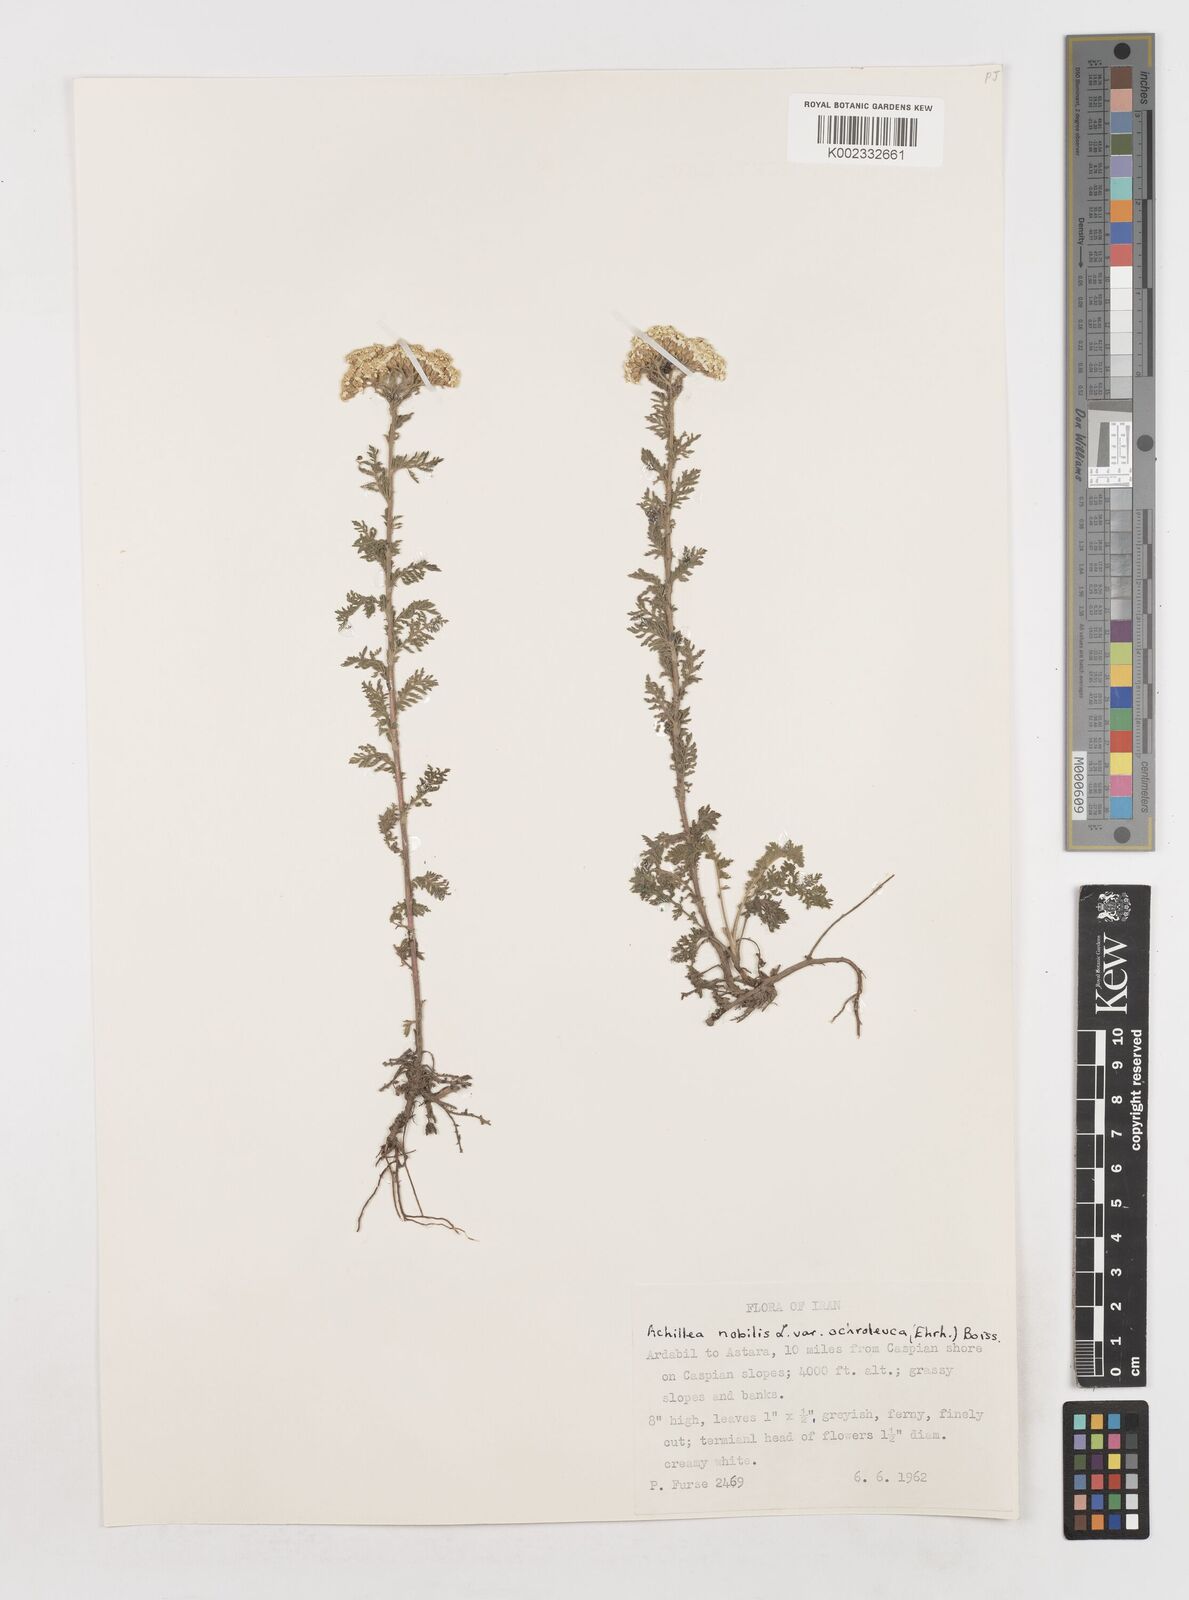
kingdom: Plantae
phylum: Tracheophyta
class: Magnoliopsida
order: Asterales
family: Asteraceae
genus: Achillea
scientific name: Achillea nobilis
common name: Noble yarrow
